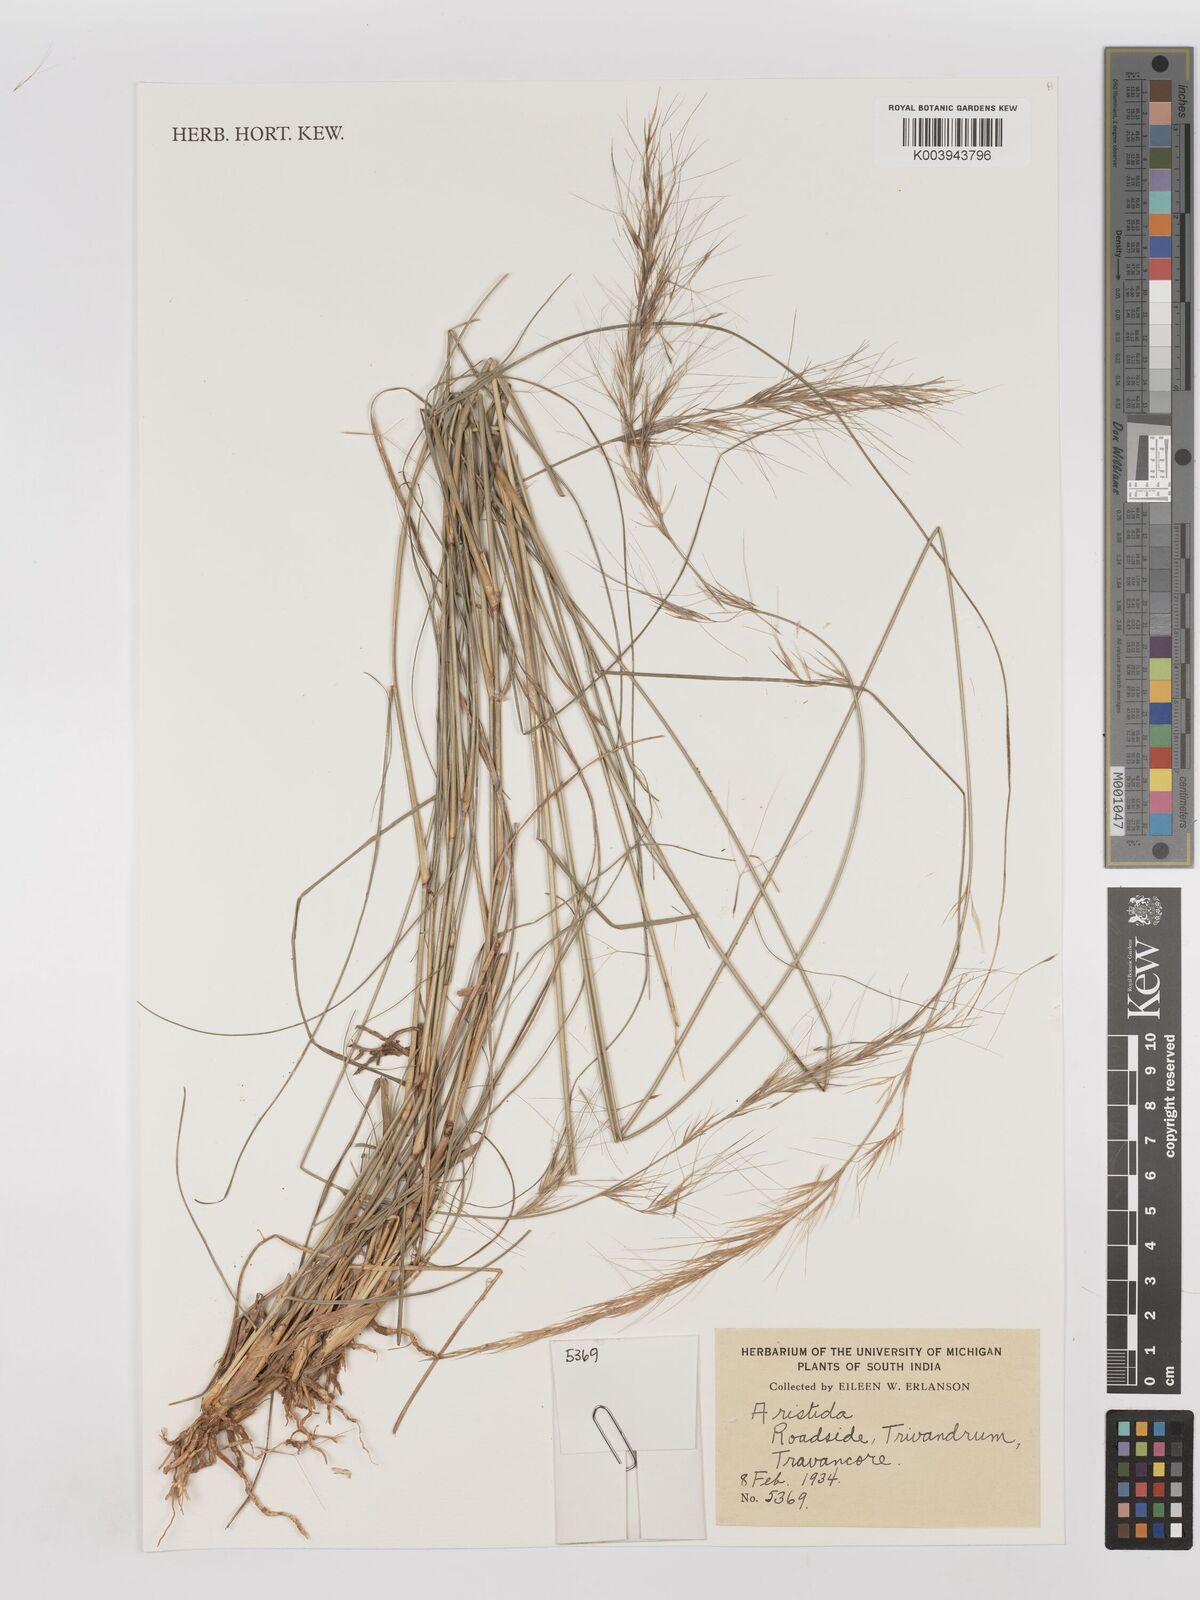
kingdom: Plantae
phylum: Tracheophyta
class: Liliopsida
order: Poales
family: Poaceae
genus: Aristida
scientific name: Aristida
